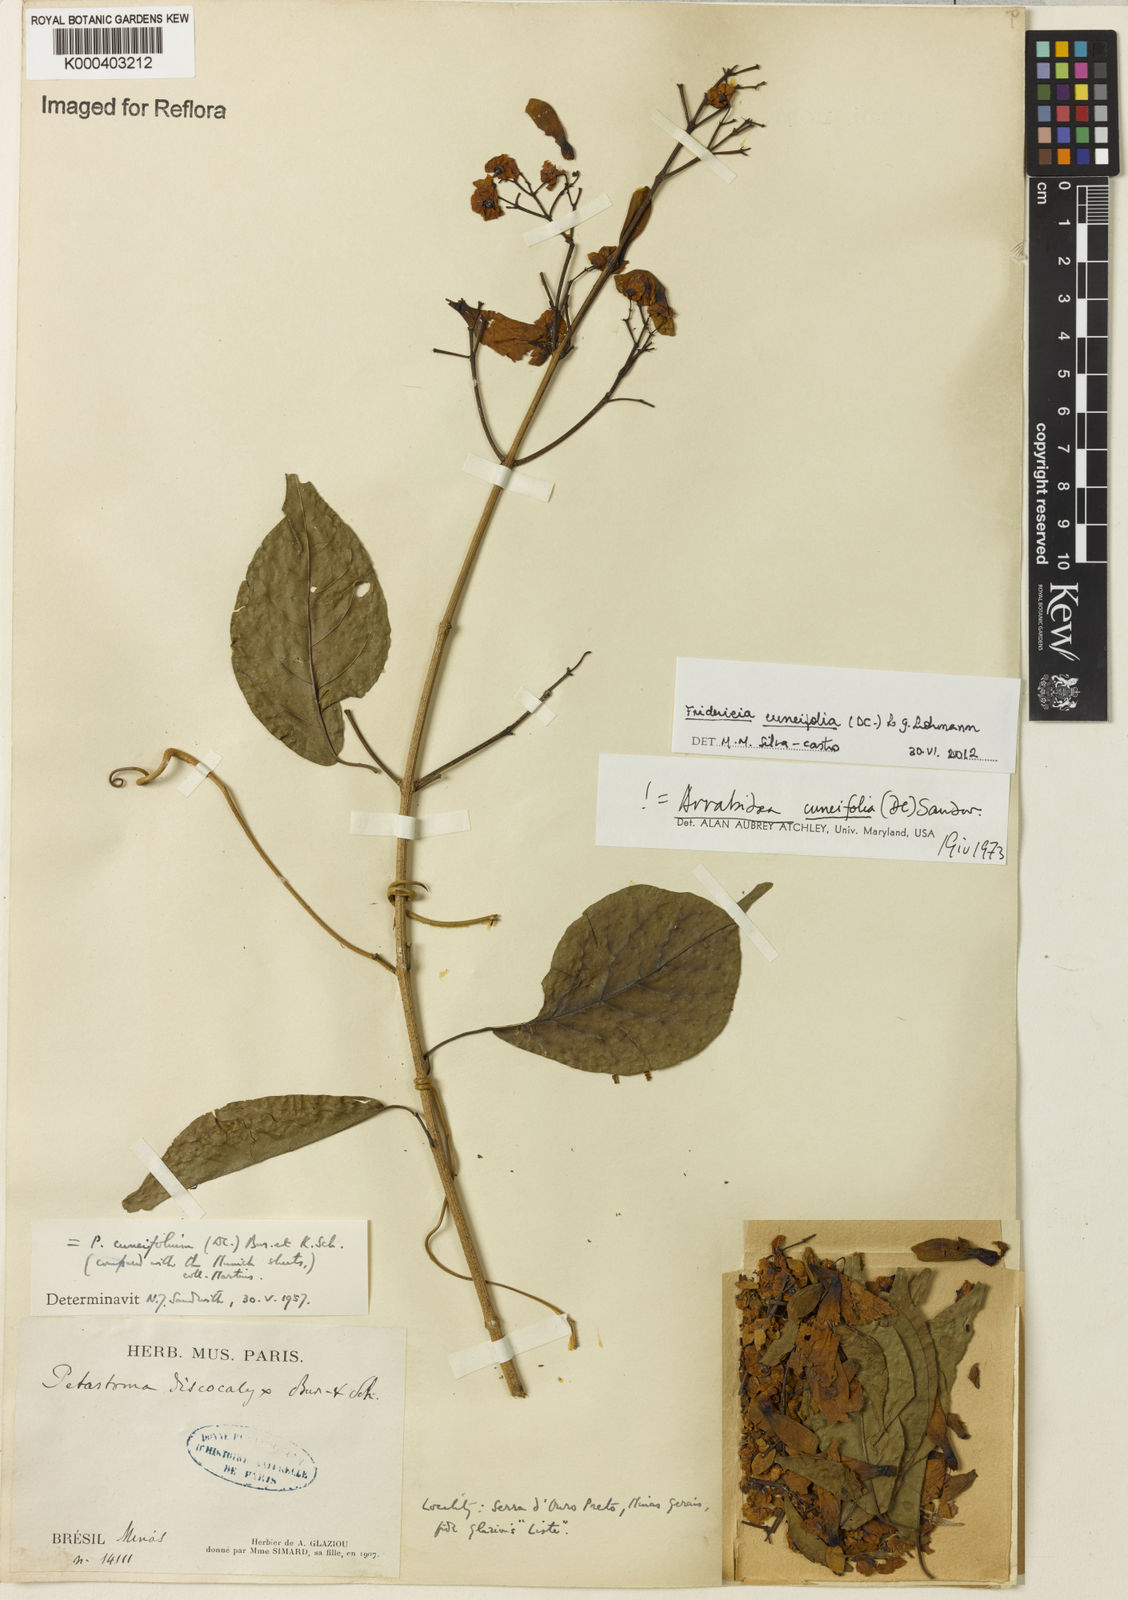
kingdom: Plantae
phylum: Tracheophyta
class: Magnoliopsida
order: Lamiales
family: Bignoniaceae
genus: Fridericia
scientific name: Fridericia cuneifolia
